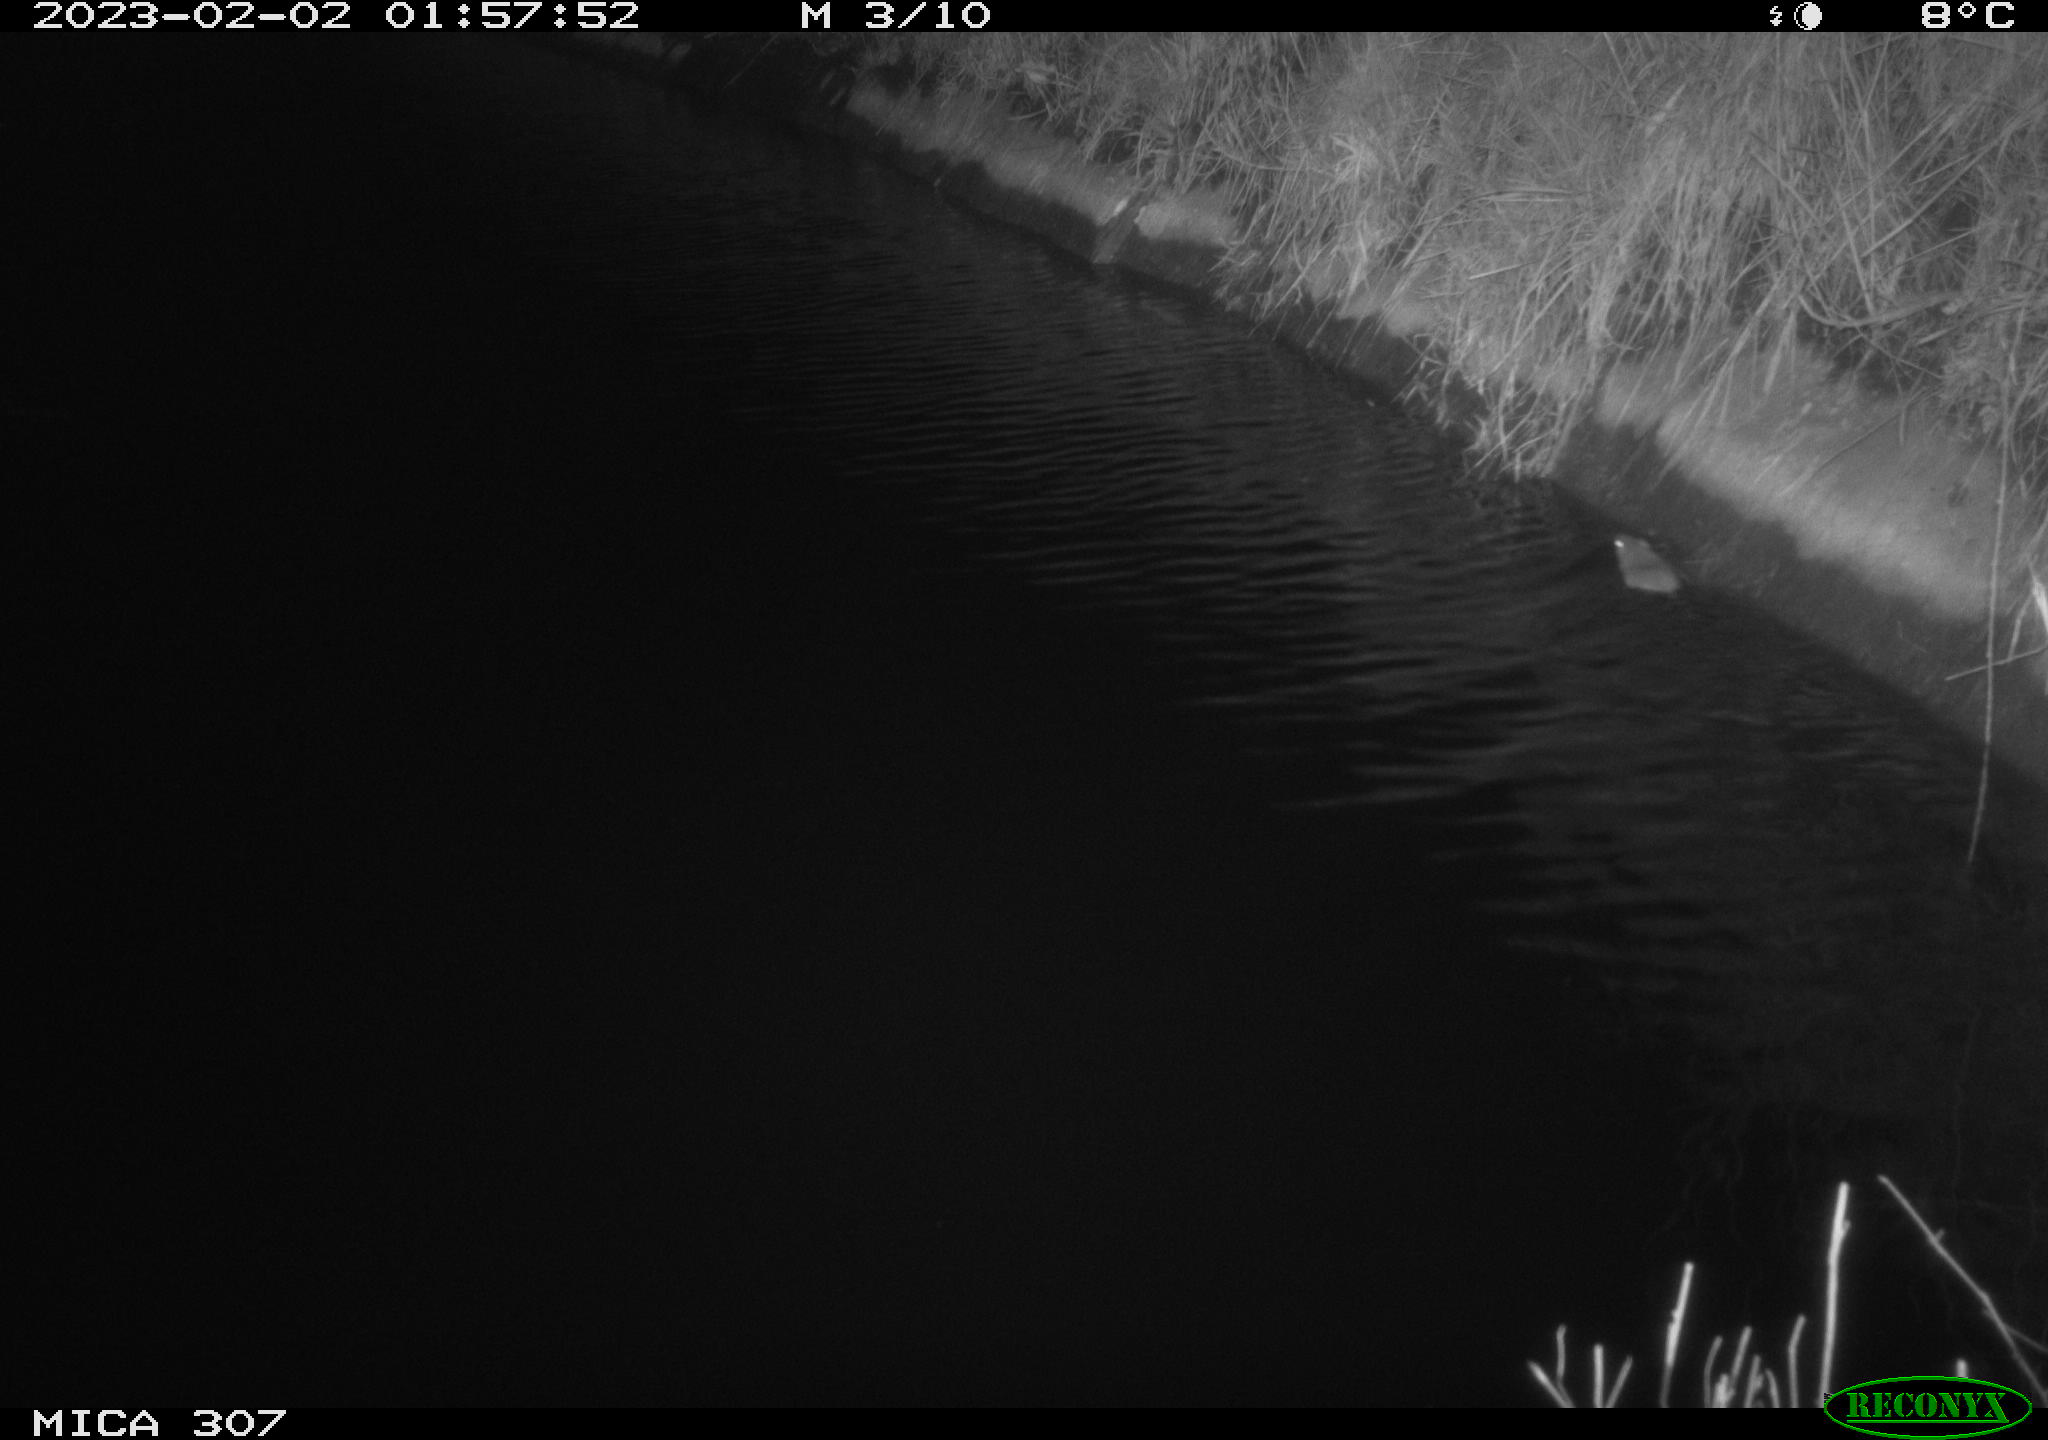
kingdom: Animalia
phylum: Chordata
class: Mammalia
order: Rodentia
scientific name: Rodentia
